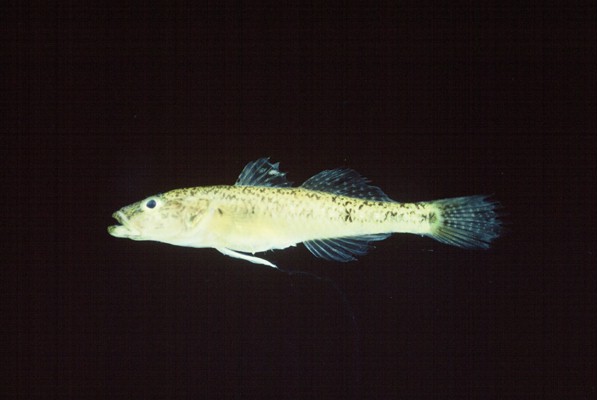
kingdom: Animalia
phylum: Chordata
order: Perciformes
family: Gobiidae
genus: Glossogobius
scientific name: Glossogobius callidus
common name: River goby
